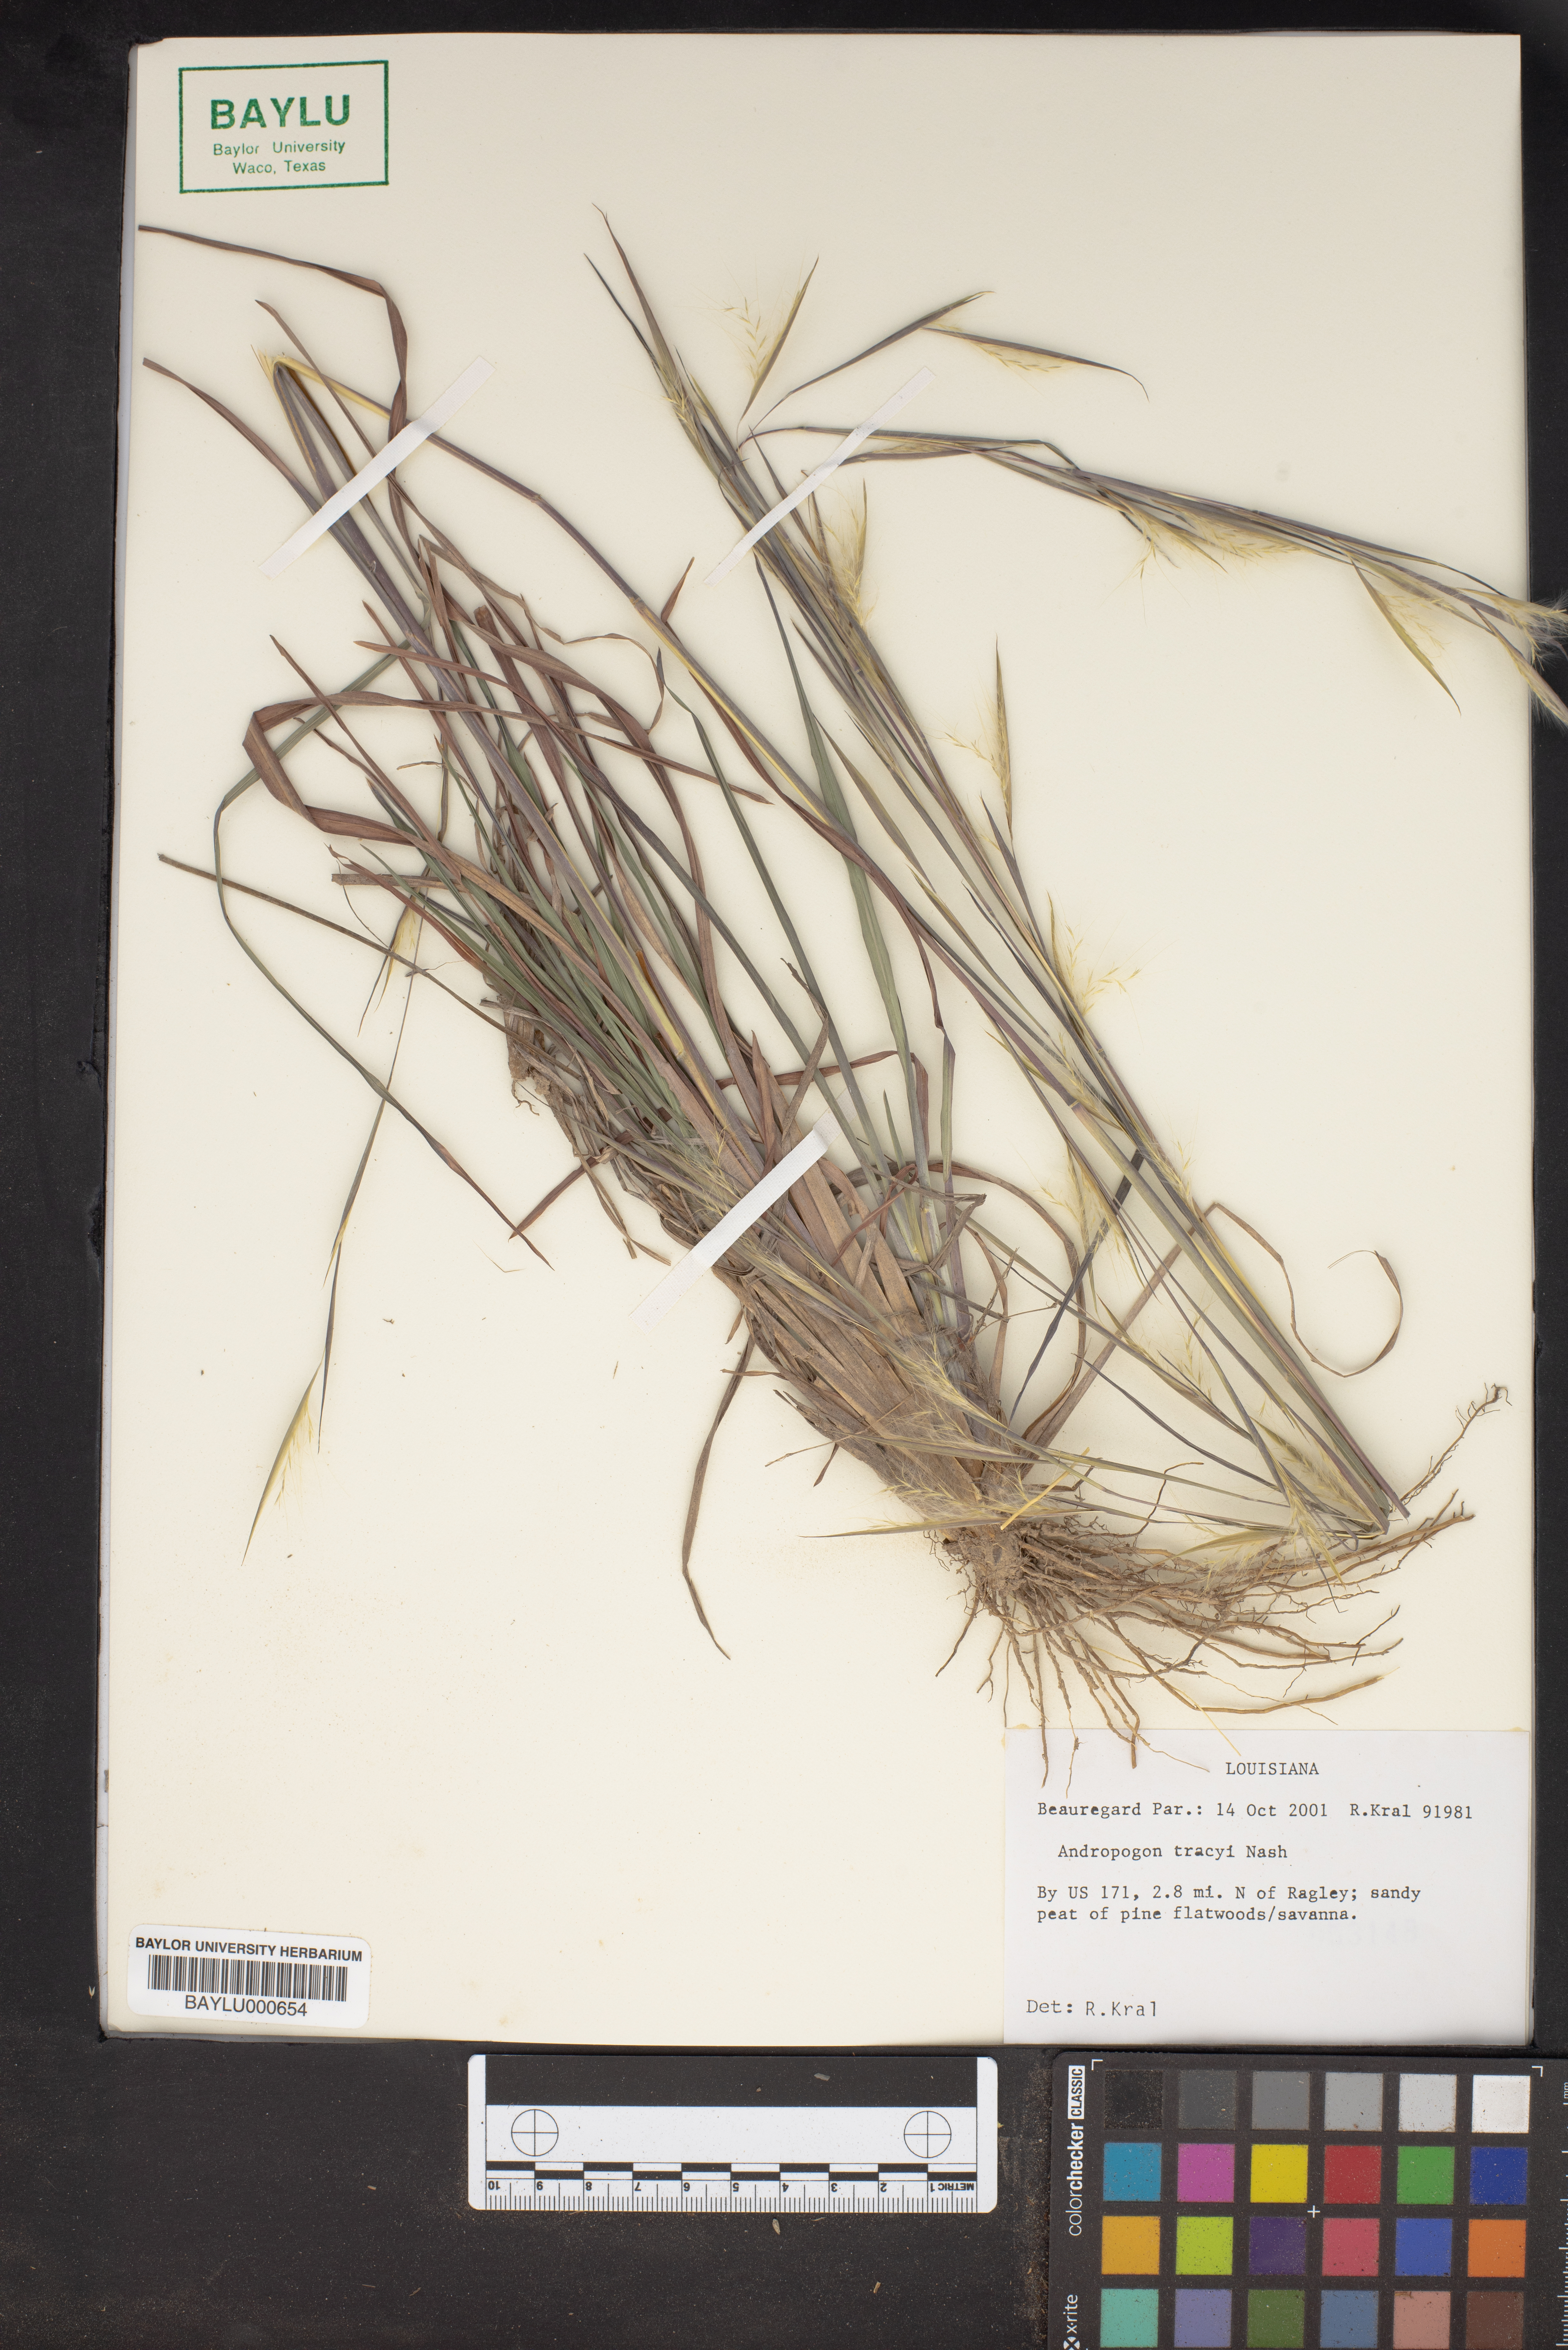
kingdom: Plantae
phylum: Tracheophyta
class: Liliopsida
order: Poales
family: Poaceae
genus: Andropogon
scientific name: Andropogon tracyi
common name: Tracy's bluestem
